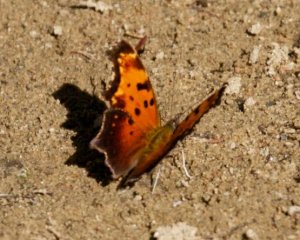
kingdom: Animalia
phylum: Arthropoda
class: Insecta
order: Lepidoptera
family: Nymphalidae
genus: Polygonia
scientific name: Polygonia progne
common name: Gray Comma
